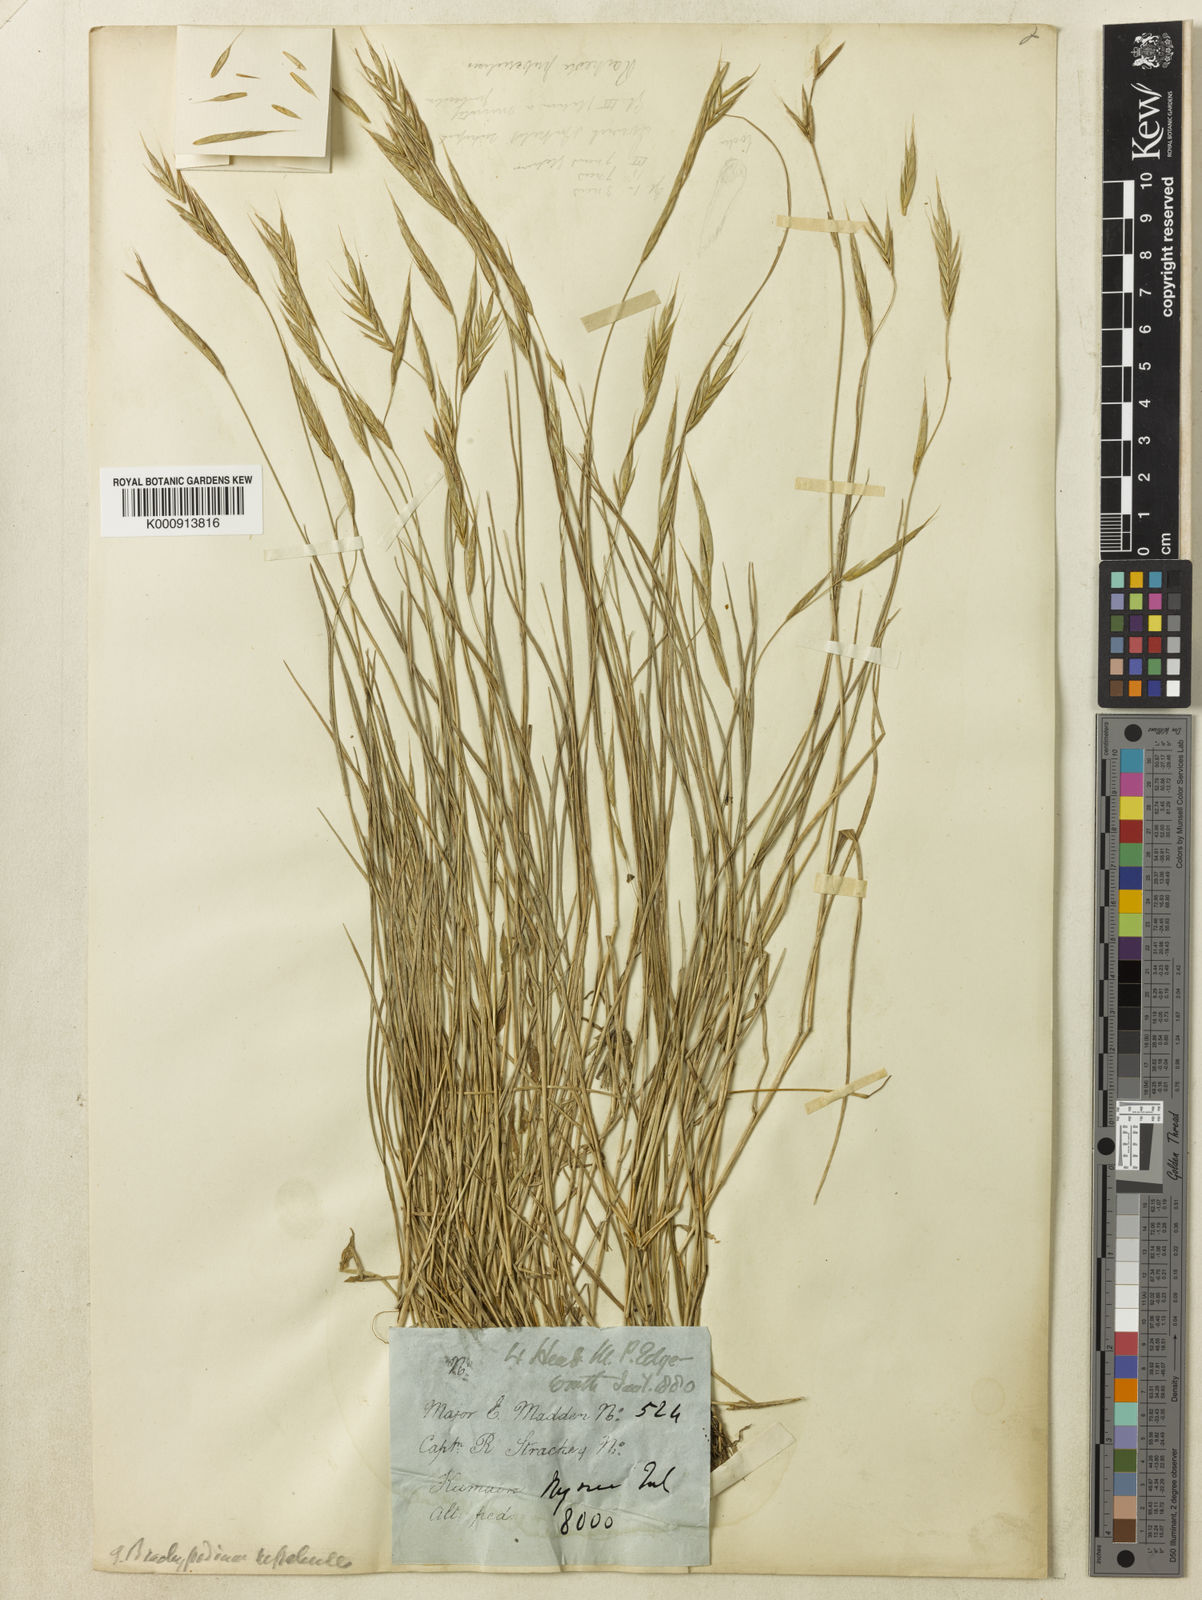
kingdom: Plantae
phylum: Tracheophyta
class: Liliopsida
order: Poales
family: Poaceae
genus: Brachypodium
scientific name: Brachypodium sylvaticum
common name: False-brome
